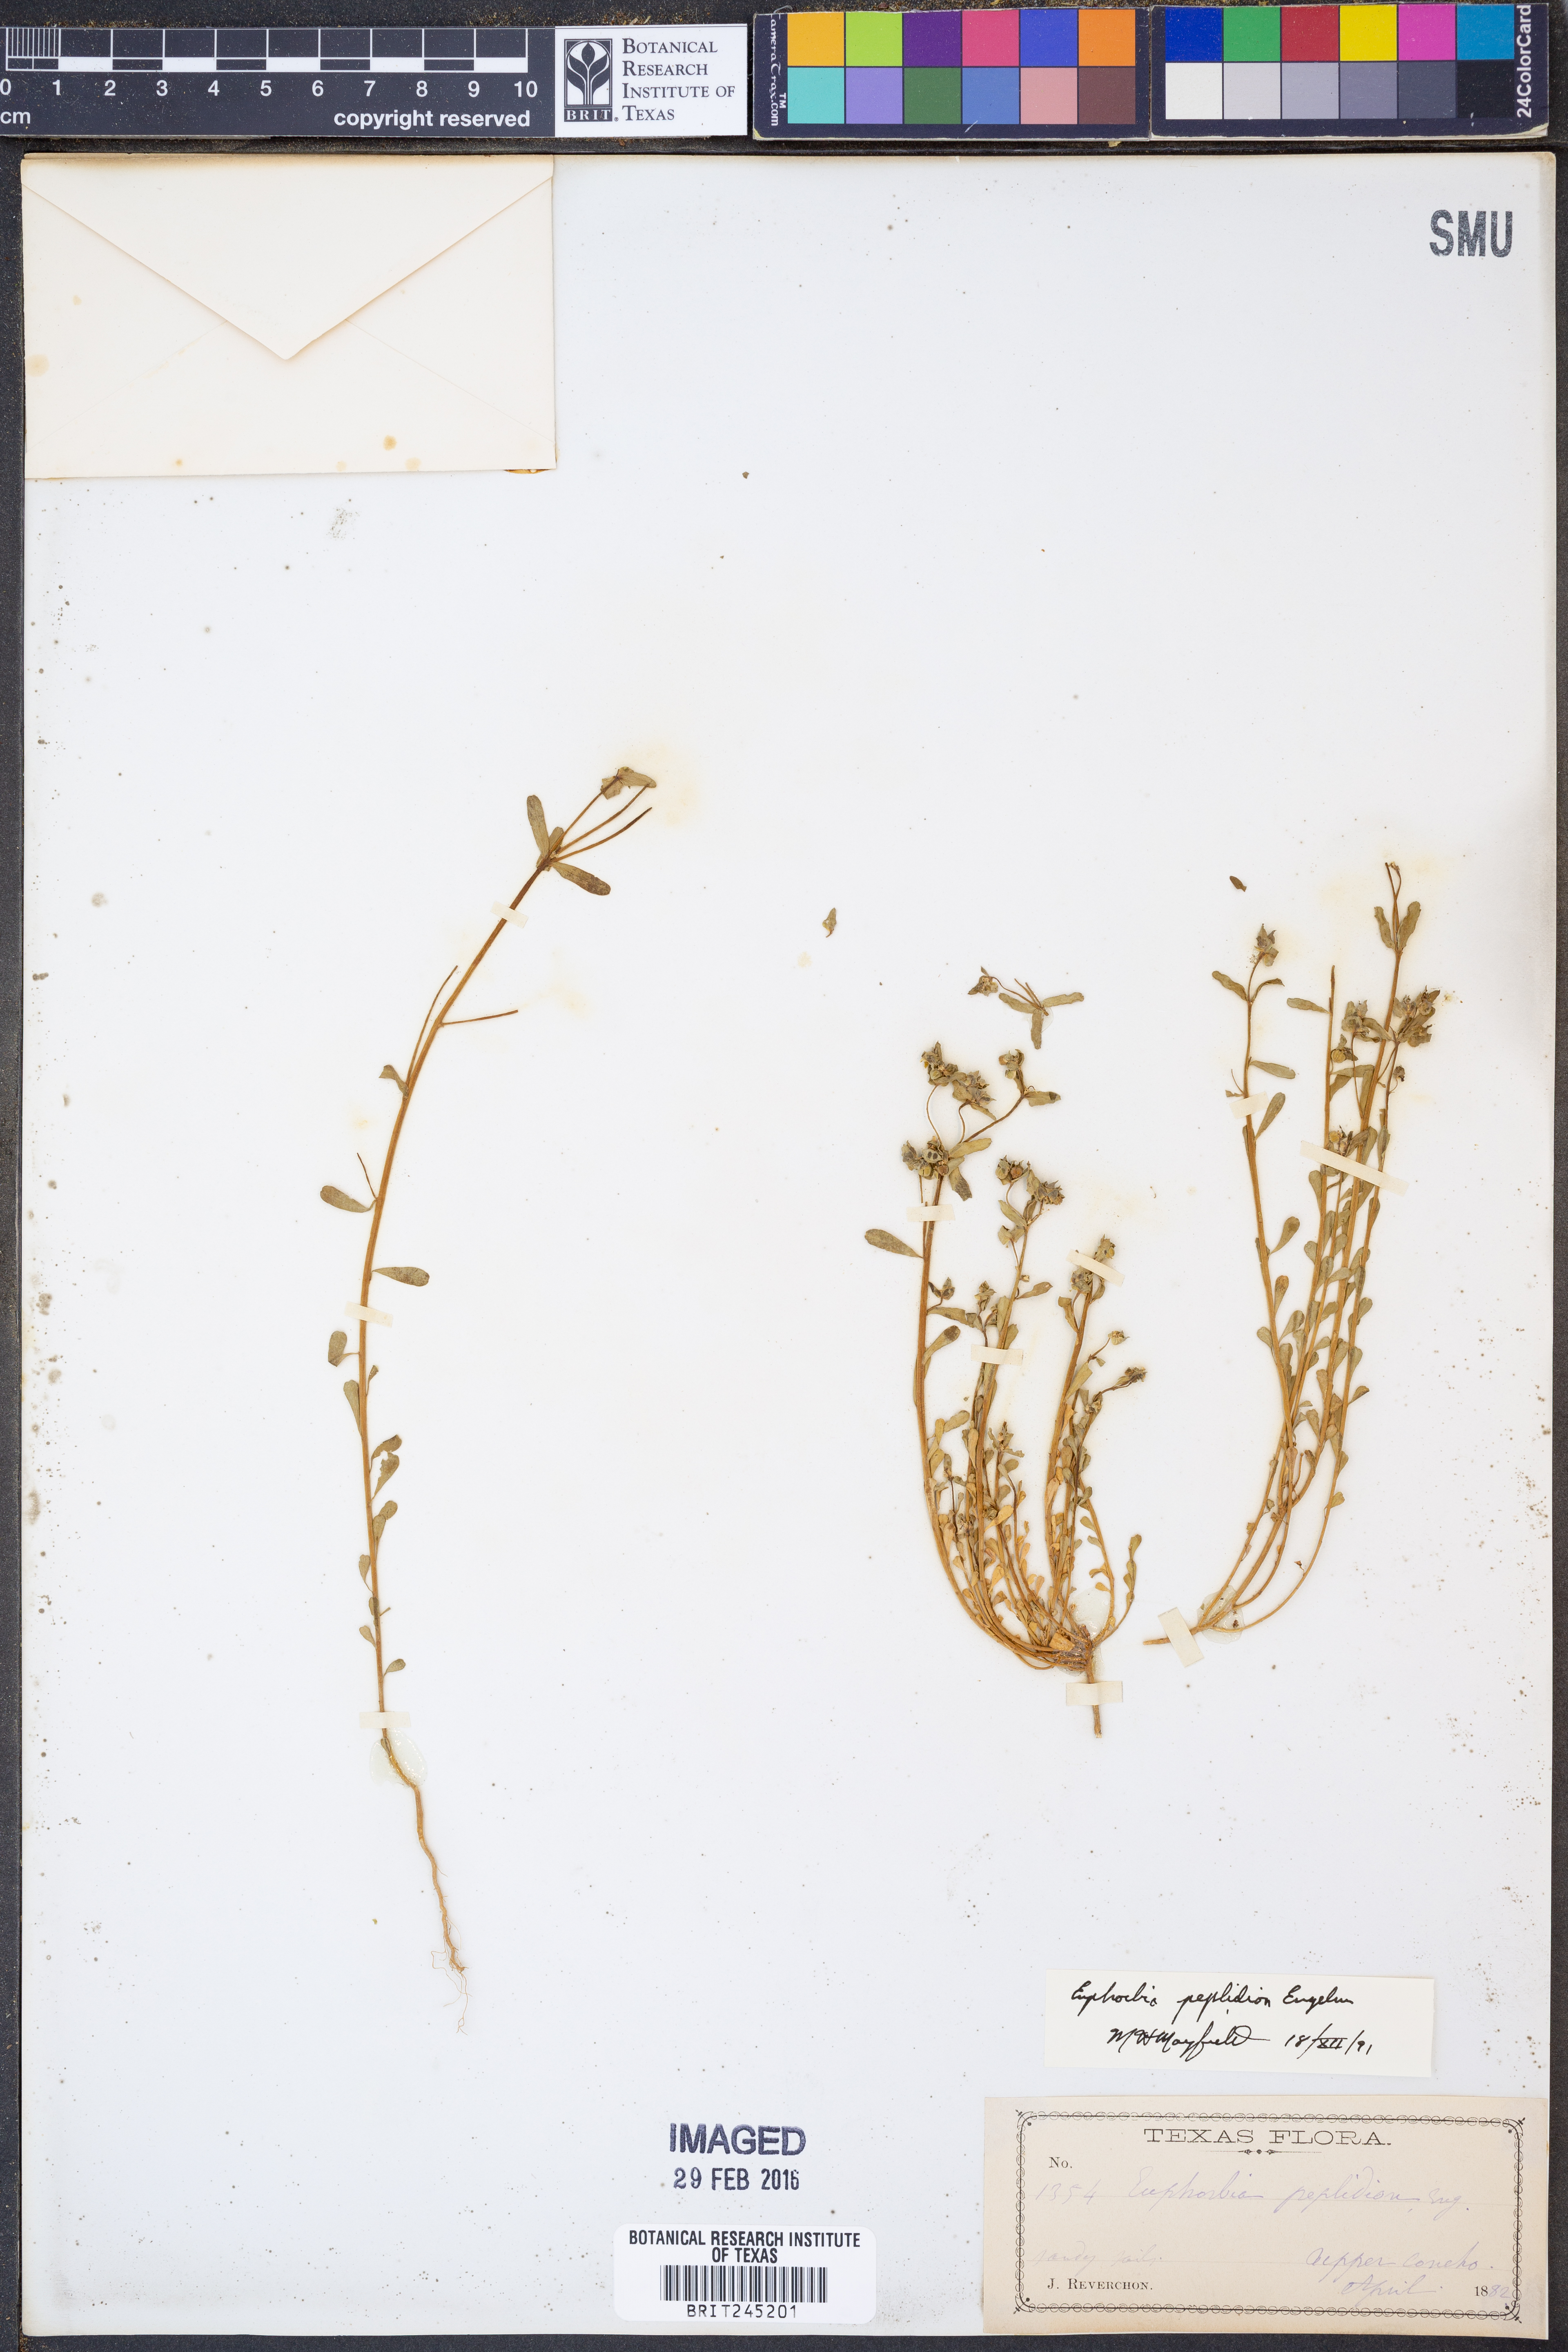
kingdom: Plantae
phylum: Tracheophyta
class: Magnoliopsida
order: Malpighiales
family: Euphorbiaceae
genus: Euphorbia
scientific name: Euphorbia peplidion
